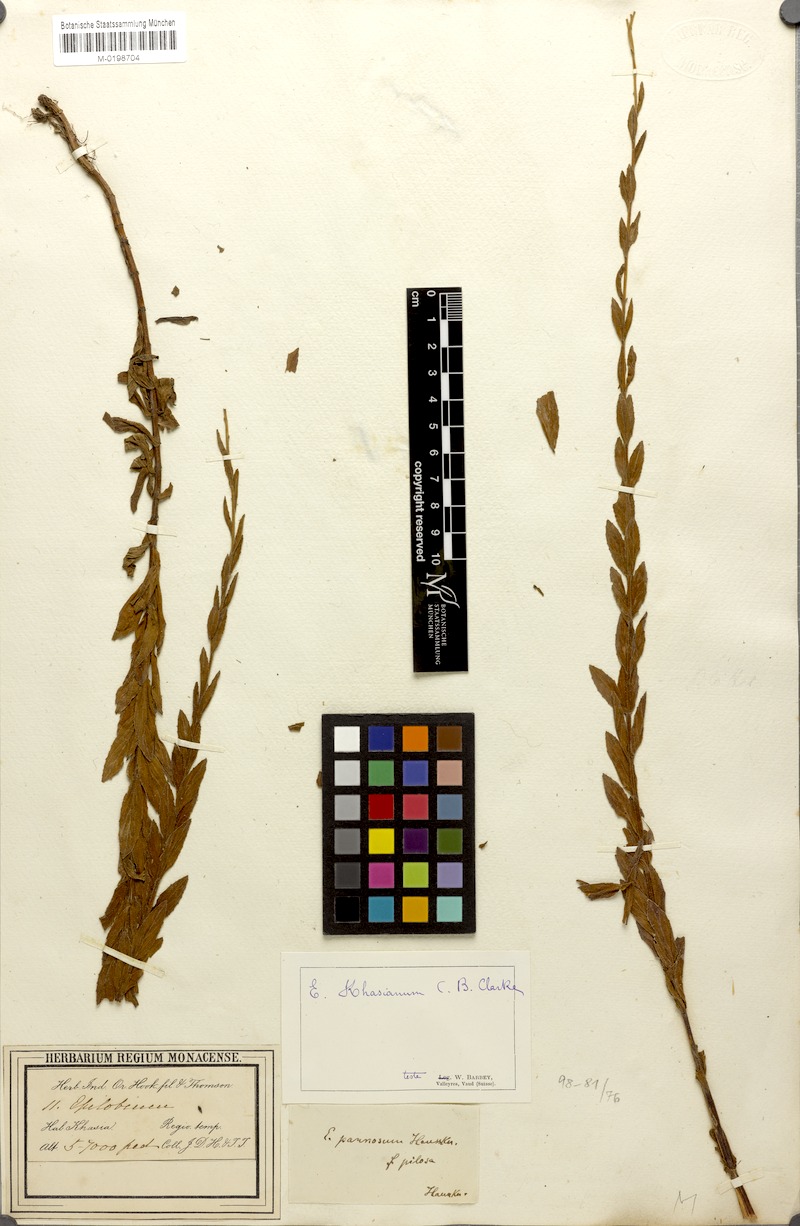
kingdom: Plantae
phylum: Tracheophyta
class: Magnoliopsida
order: Myrtales
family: Onagraceae
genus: Epilobium
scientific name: Epilobium pannosum
